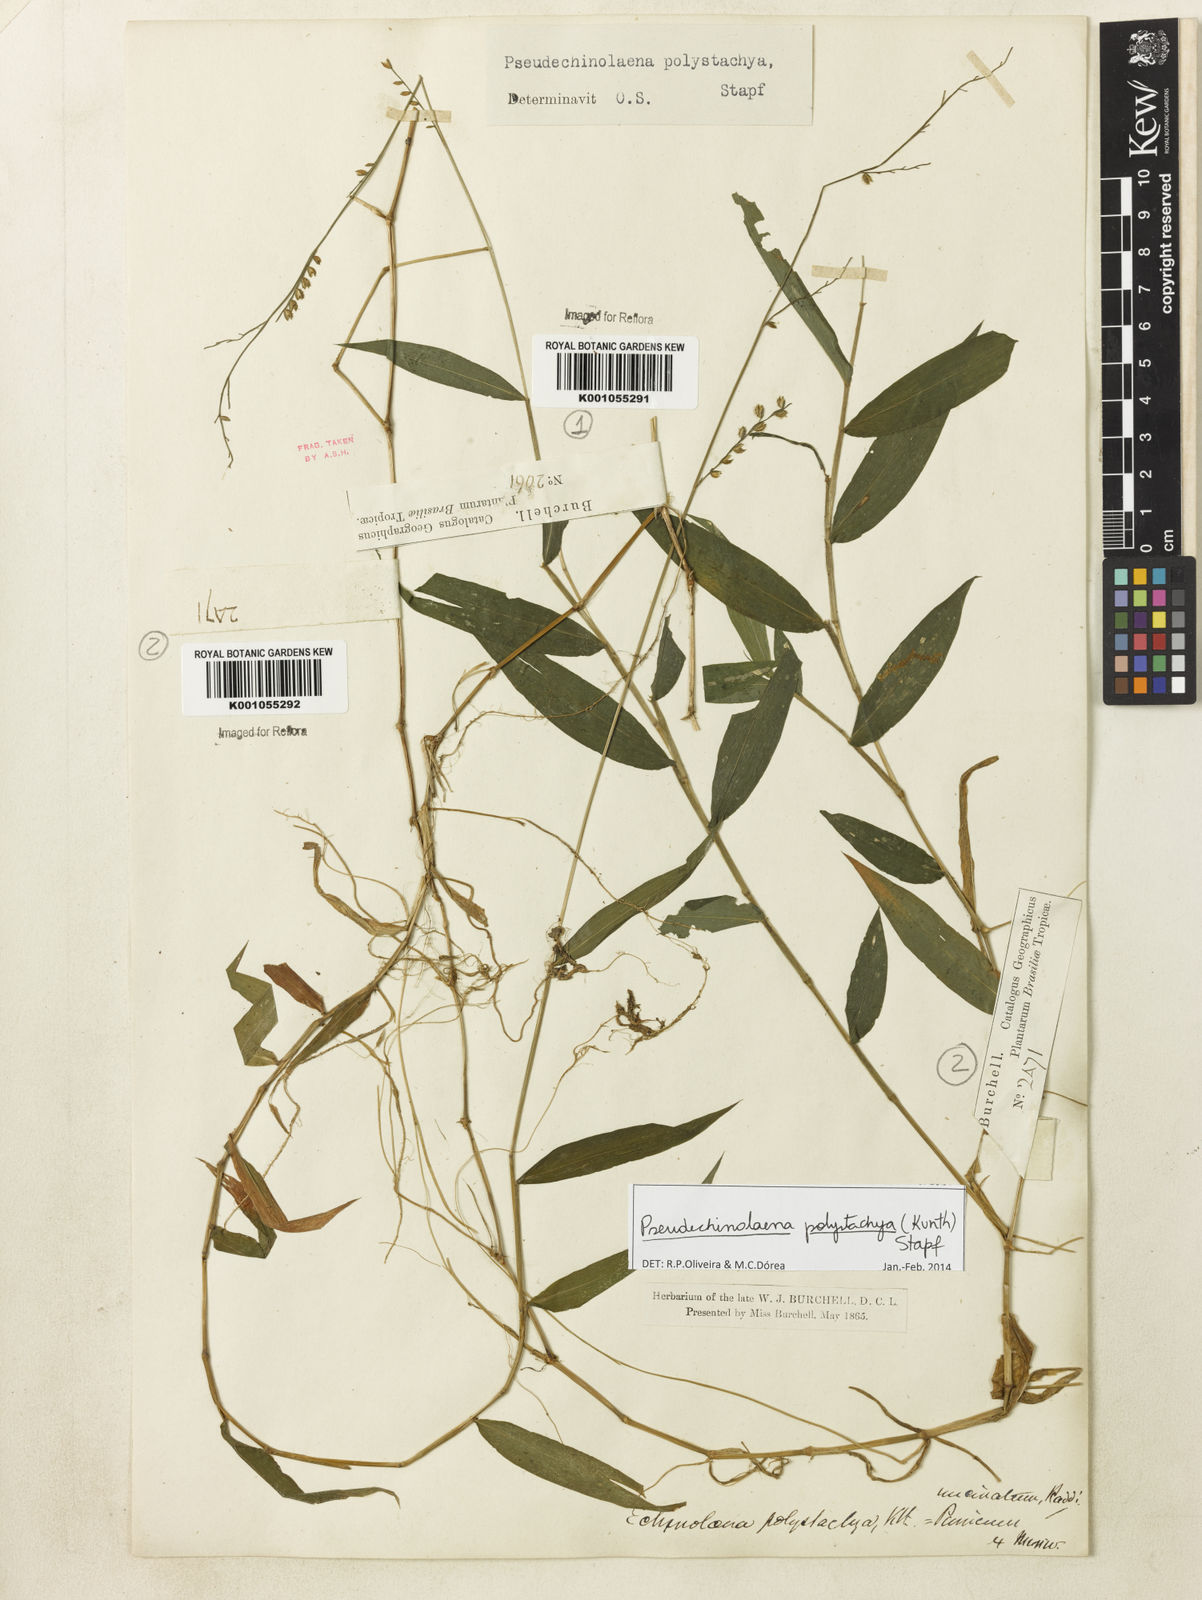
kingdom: Plantae
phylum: Tracheophyta
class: Liliopsida
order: Poales
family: Poaceae
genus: Pseudechinolaena
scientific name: Pseudechinolaena polystachya
